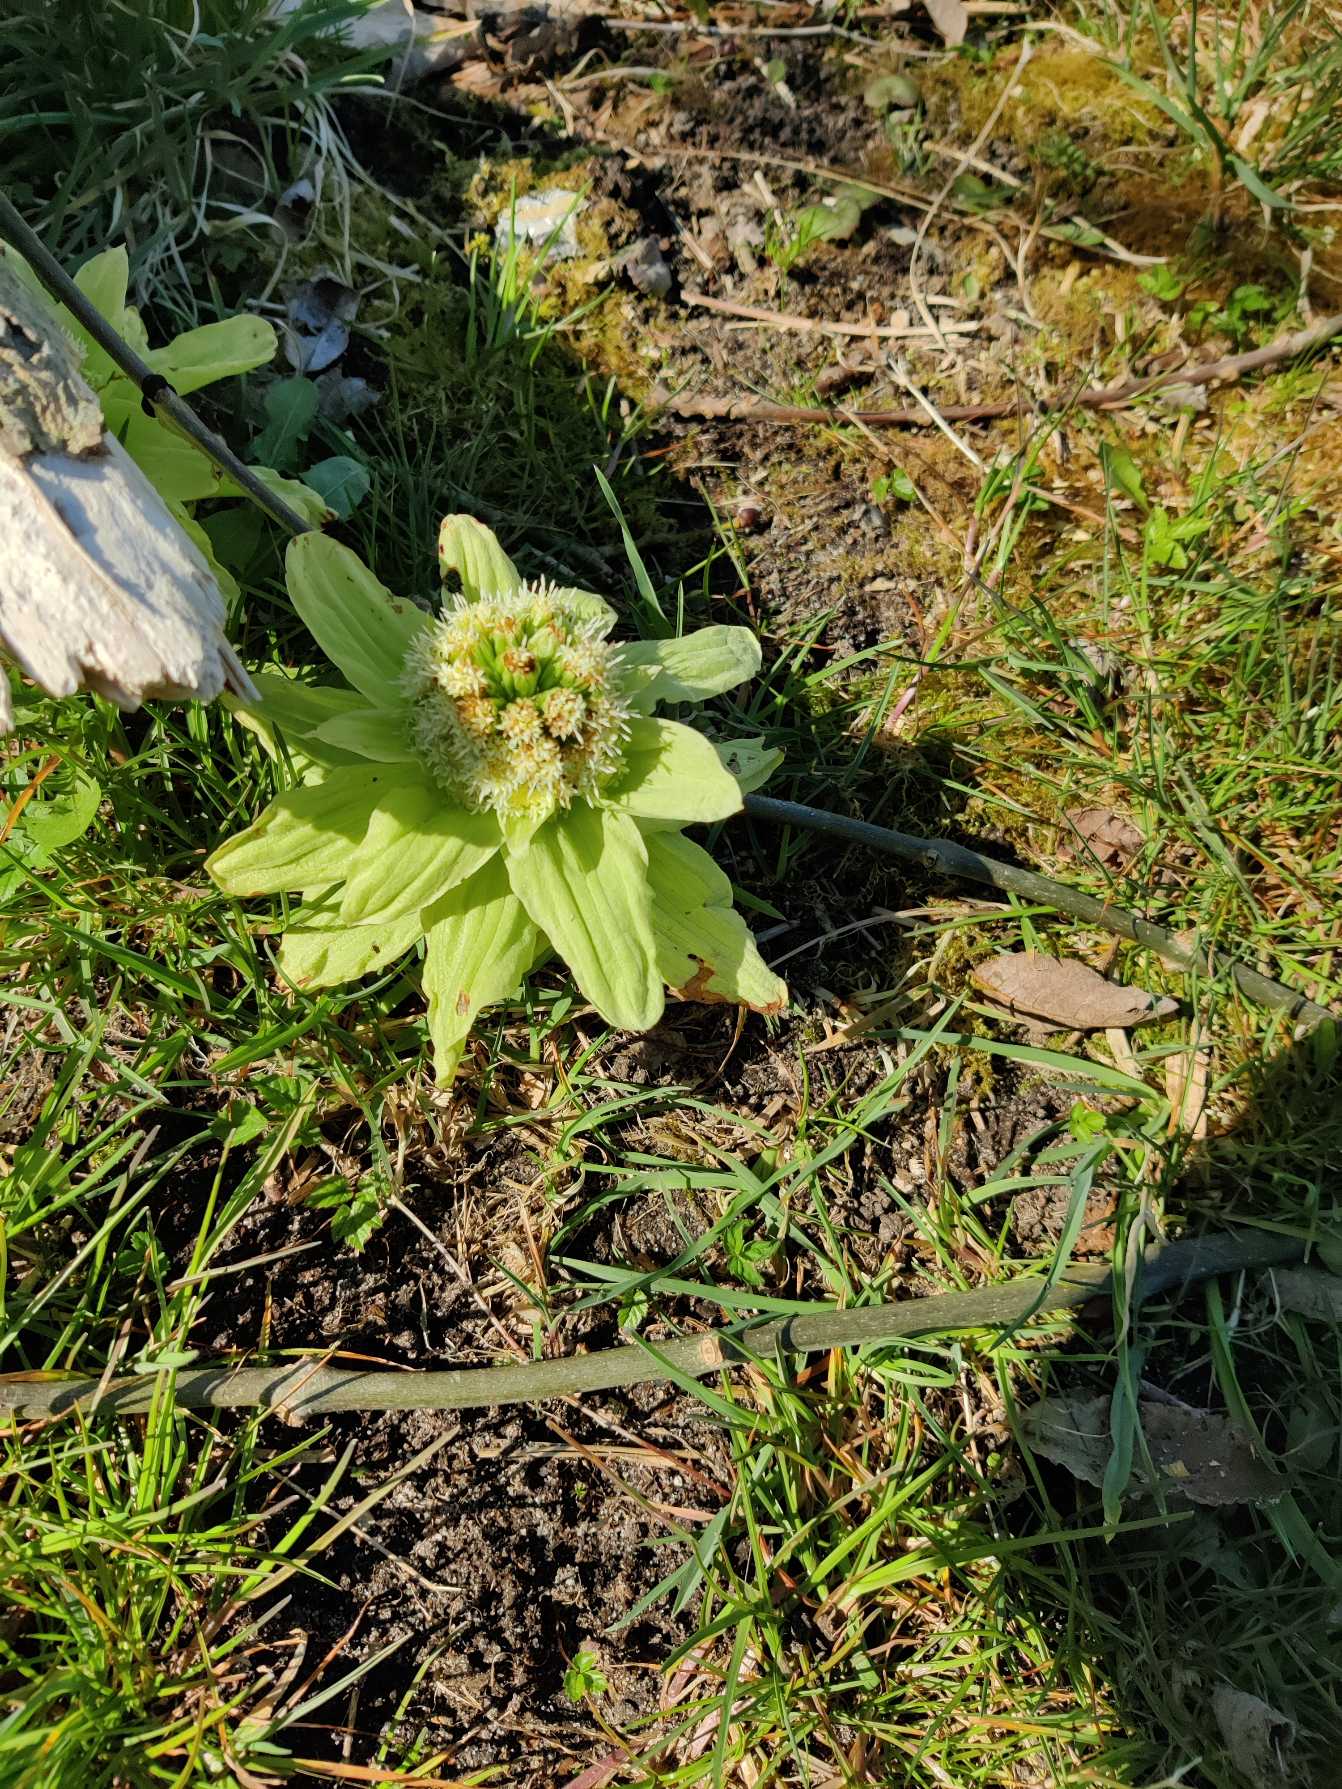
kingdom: Plantae
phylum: Tracheophyta
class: Magnoliopsida
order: Asterales
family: Asteraceae
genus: Petasites
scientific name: Petasites japonicus
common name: Japansk hestehov
